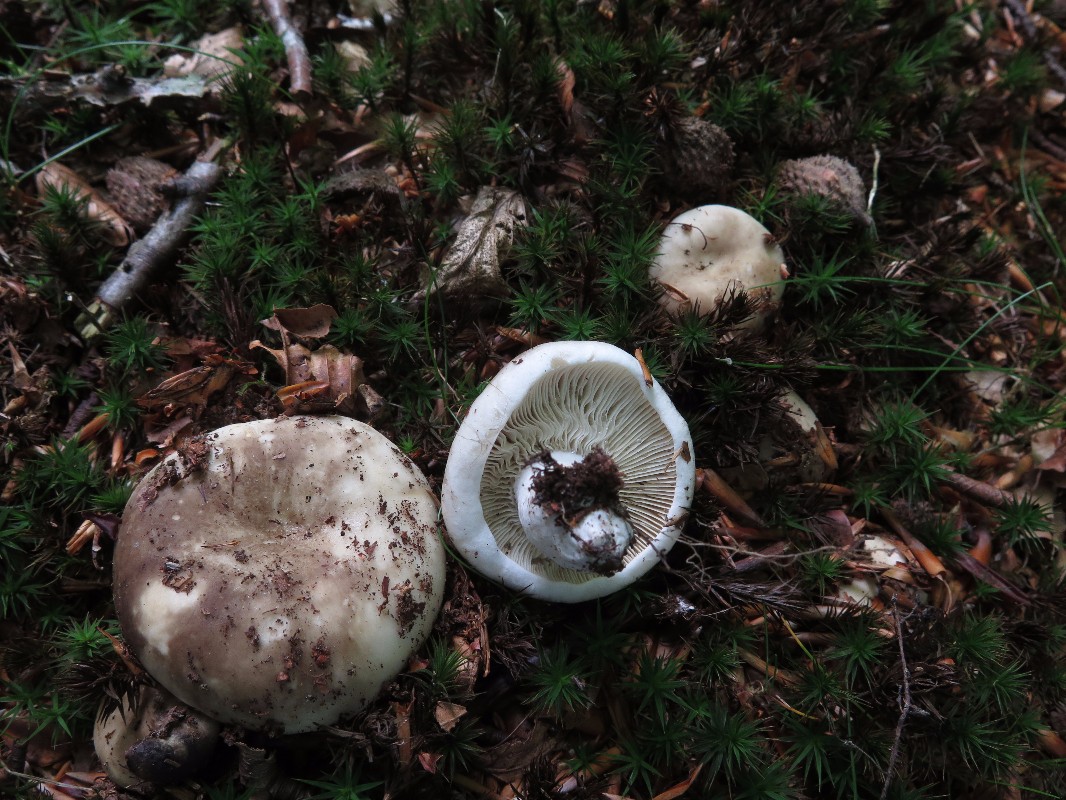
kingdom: Fungi
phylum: Basidiomycota
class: Agaricomycetes
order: Russulales
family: Russulaceae
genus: Russula
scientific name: Russula densifolia
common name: tætbladet skørhat
